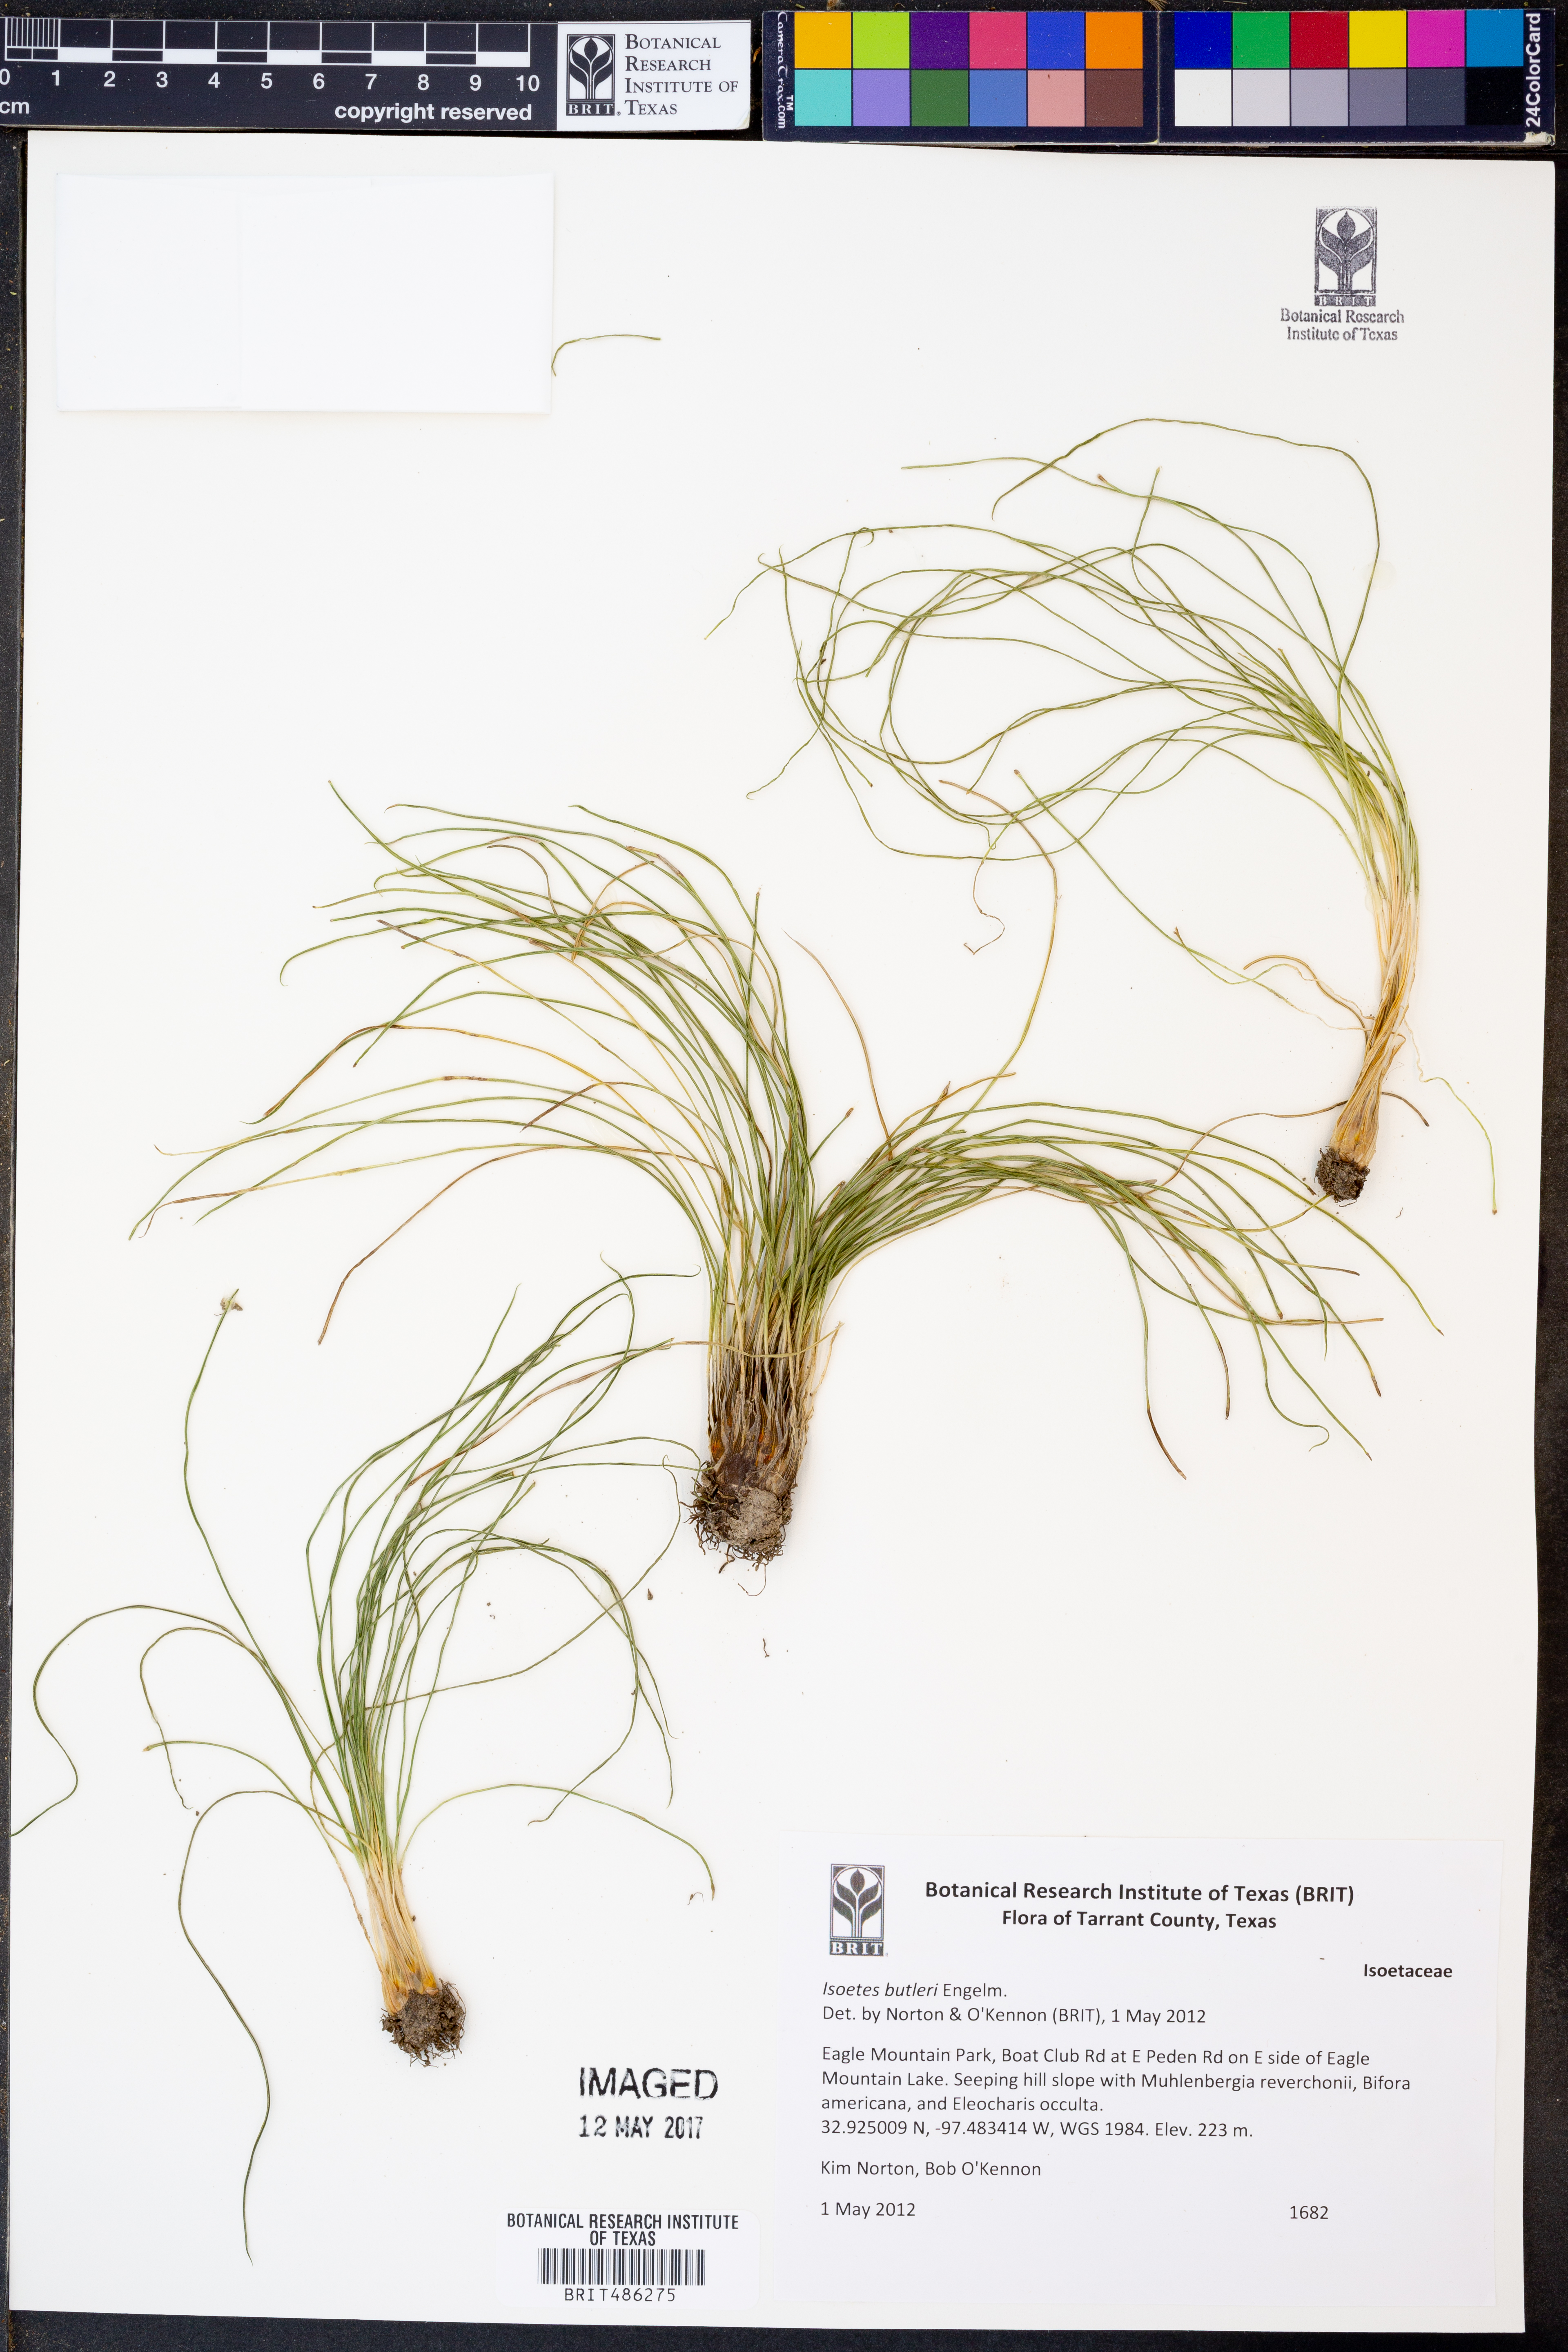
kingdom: Plantae
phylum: Tracheophyta
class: Lycopodiopsida
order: Isoetales
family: Isoetaceae
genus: Isoetes
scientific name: Isoetes butleri
